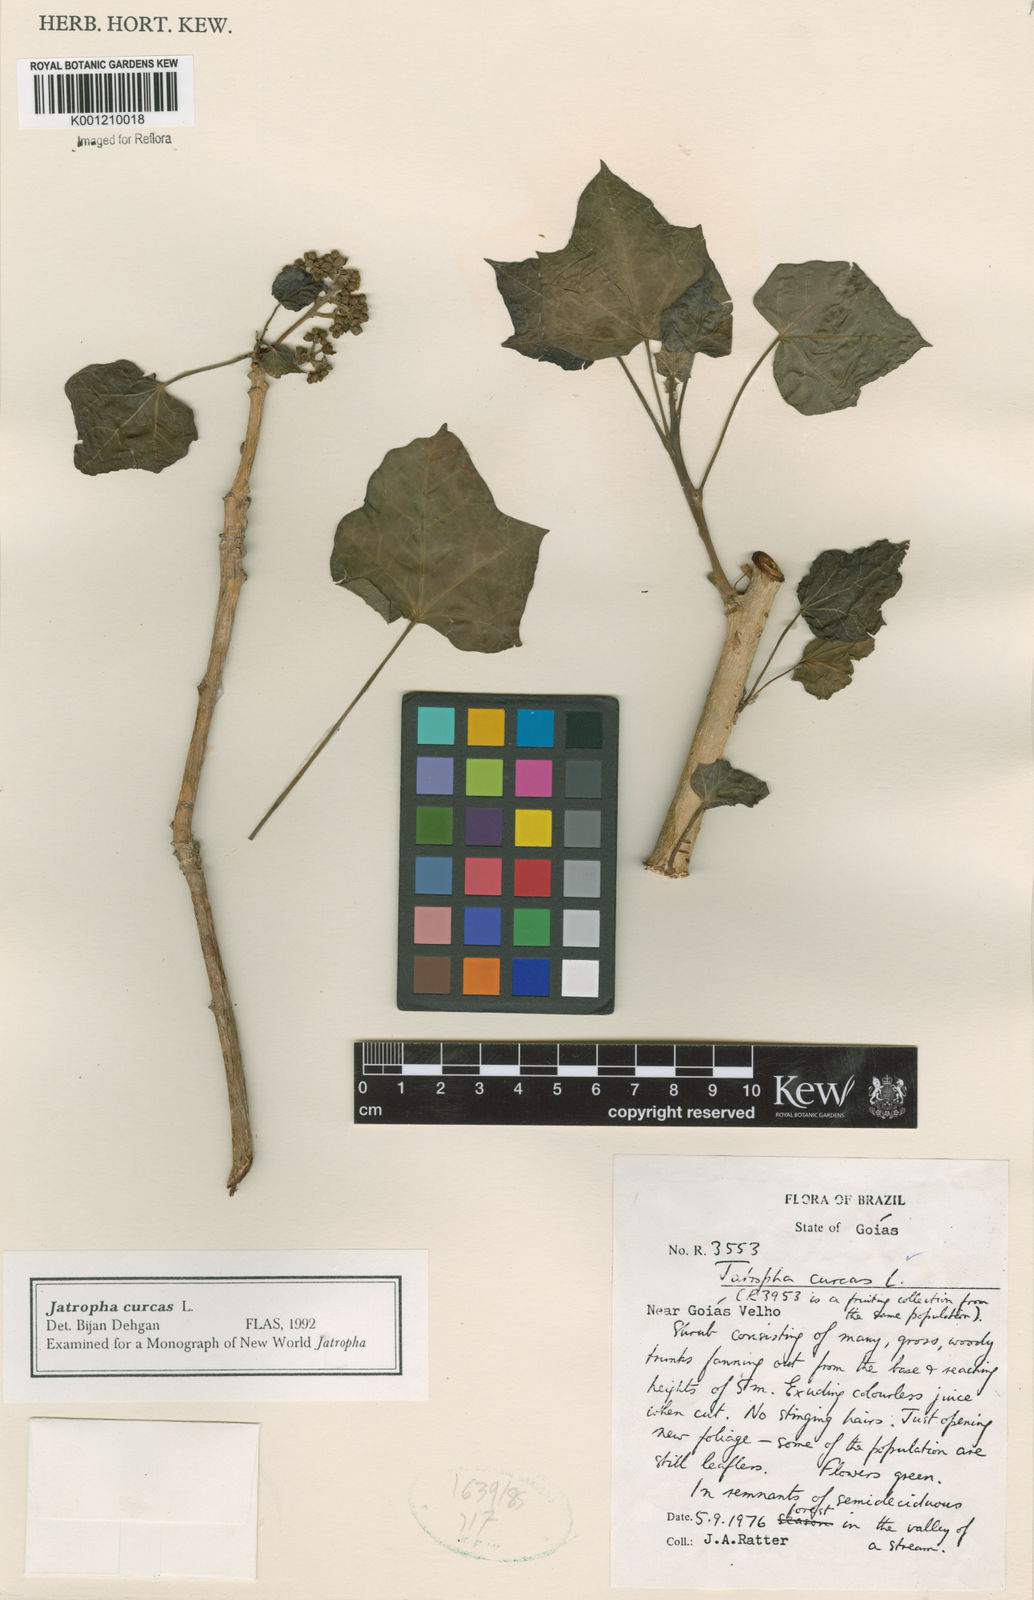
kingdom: Plantae
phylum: Tracheophyta
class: Magnoliopsida
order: Malpighiales
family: Euphorbiaceae
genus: Jatropha
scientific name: Jatropha curcas
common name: Barbados nut
